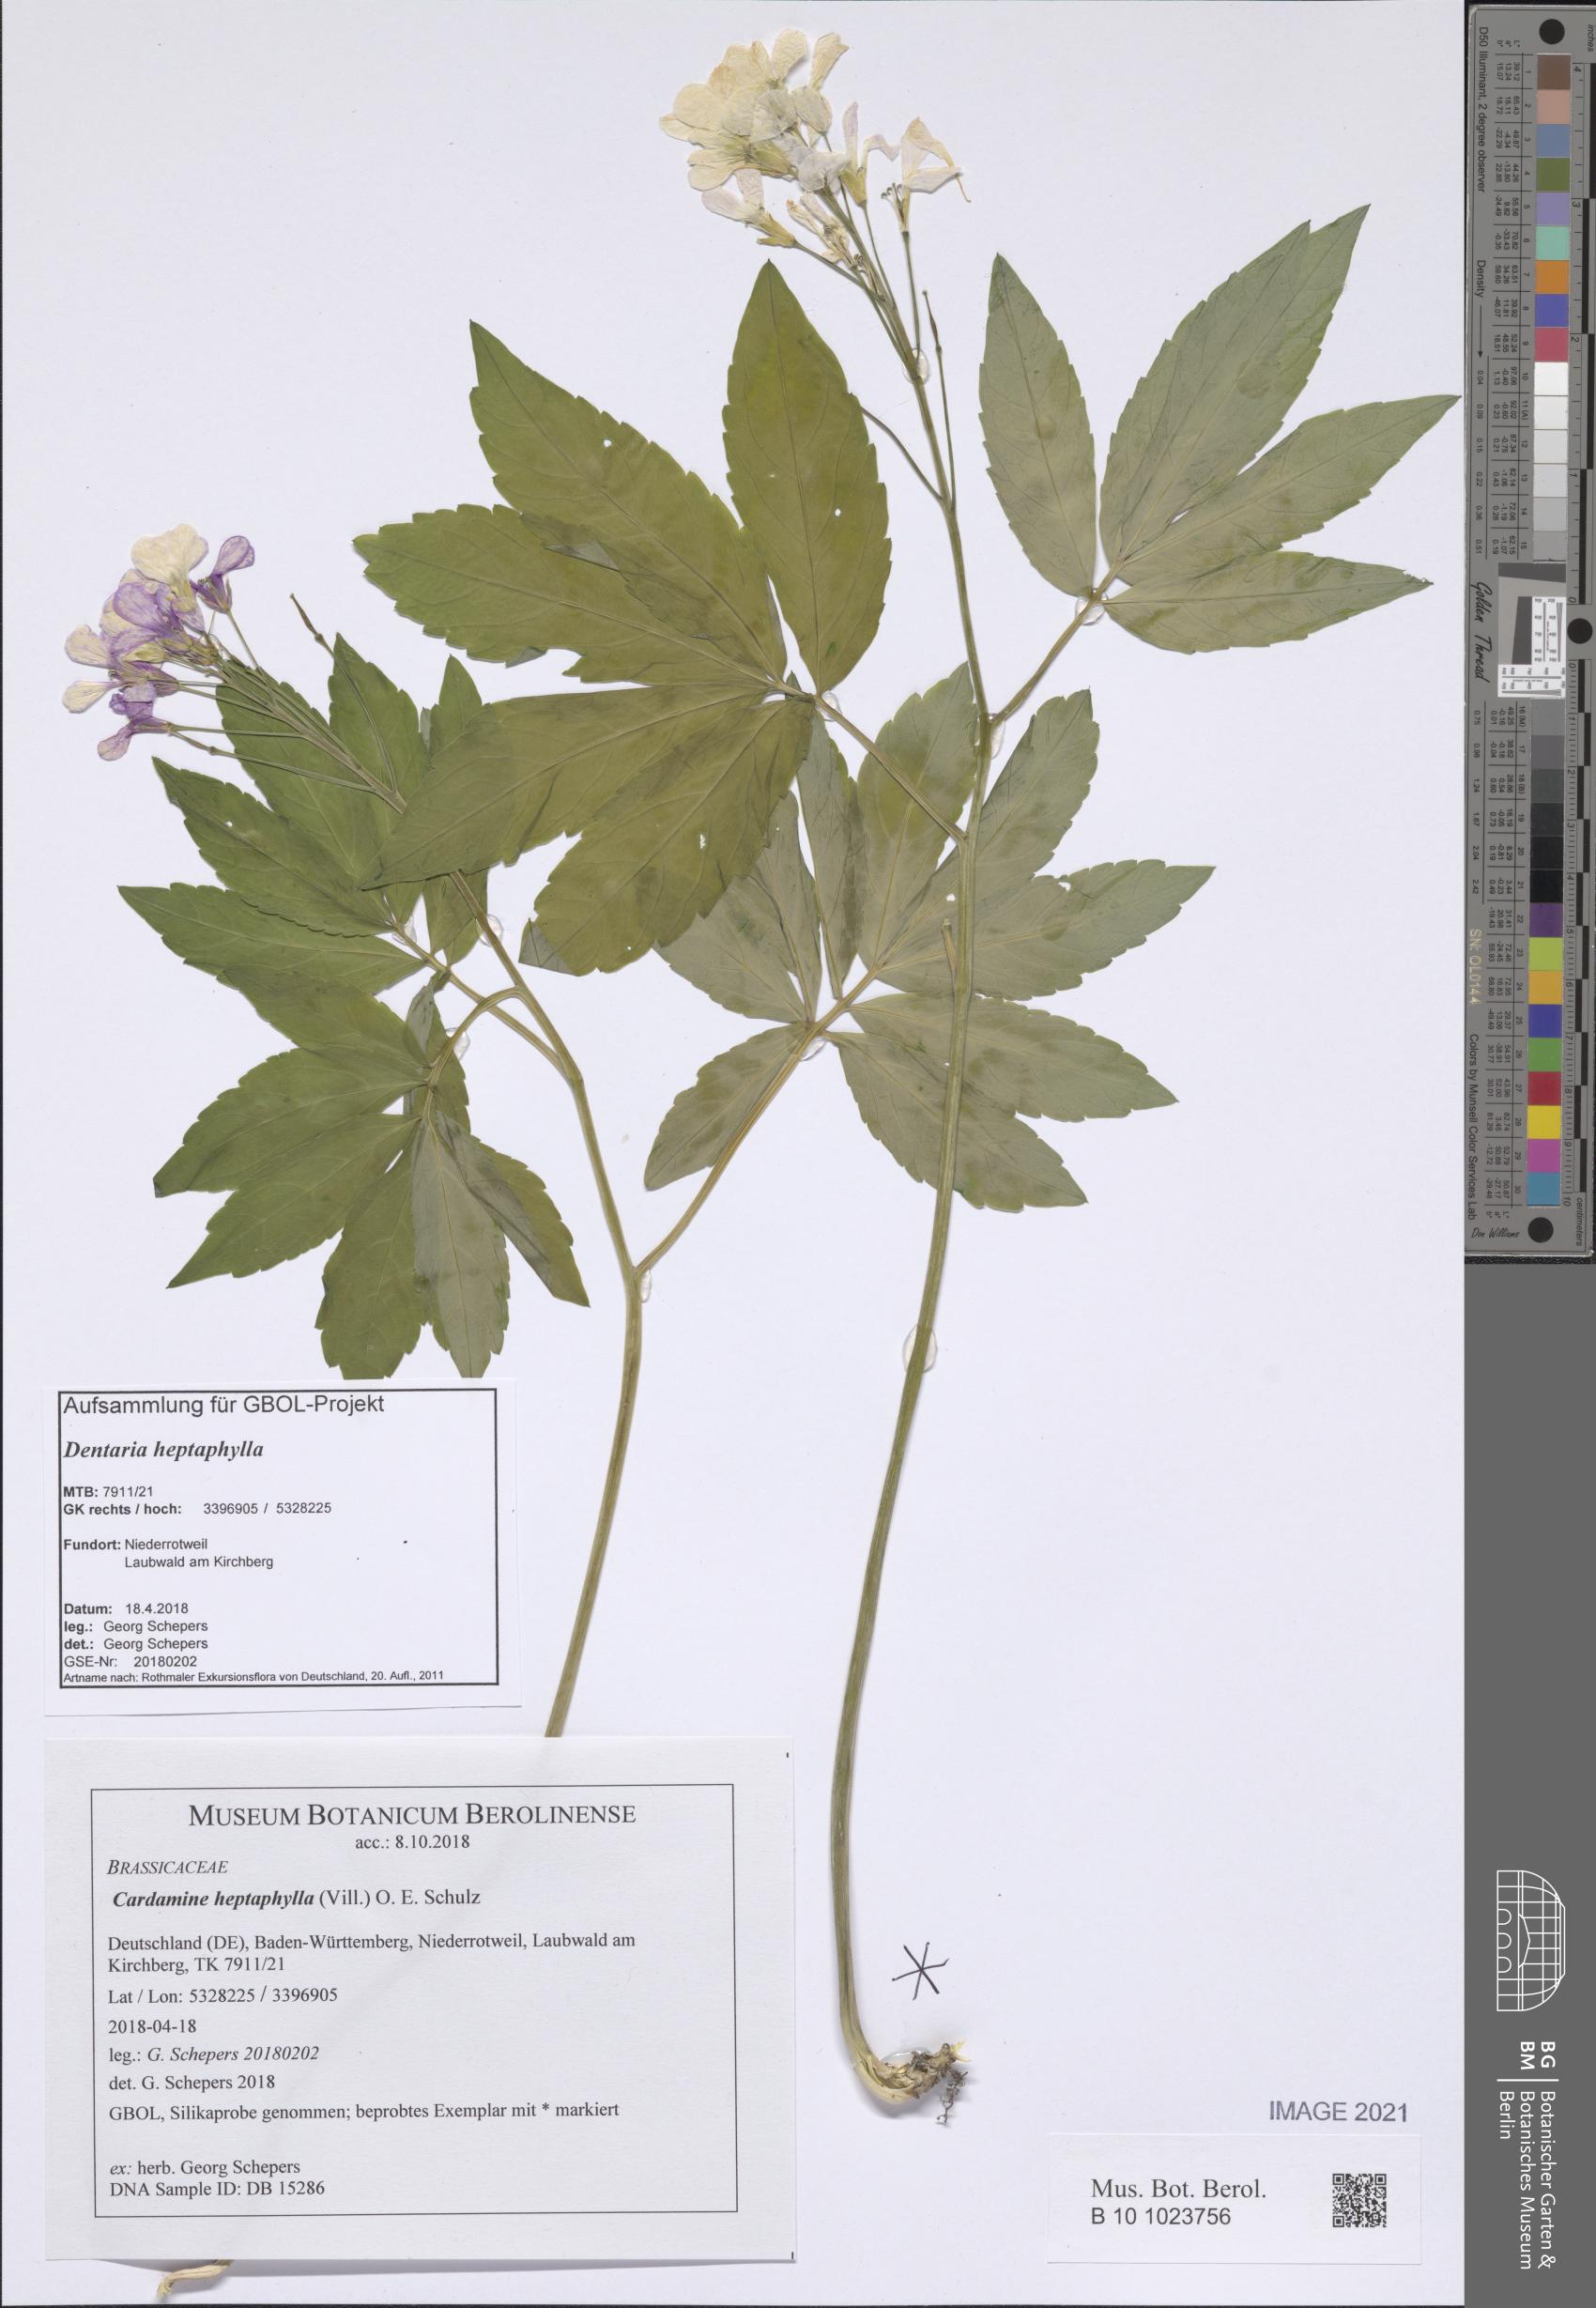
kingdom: Plantae
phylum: Tracheophyta
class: Magnoliopsida
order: Brassicales
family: Brassicaceae
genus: Cardamine
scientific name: Cardamine heptaphylla
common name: Pinnate coralroot
